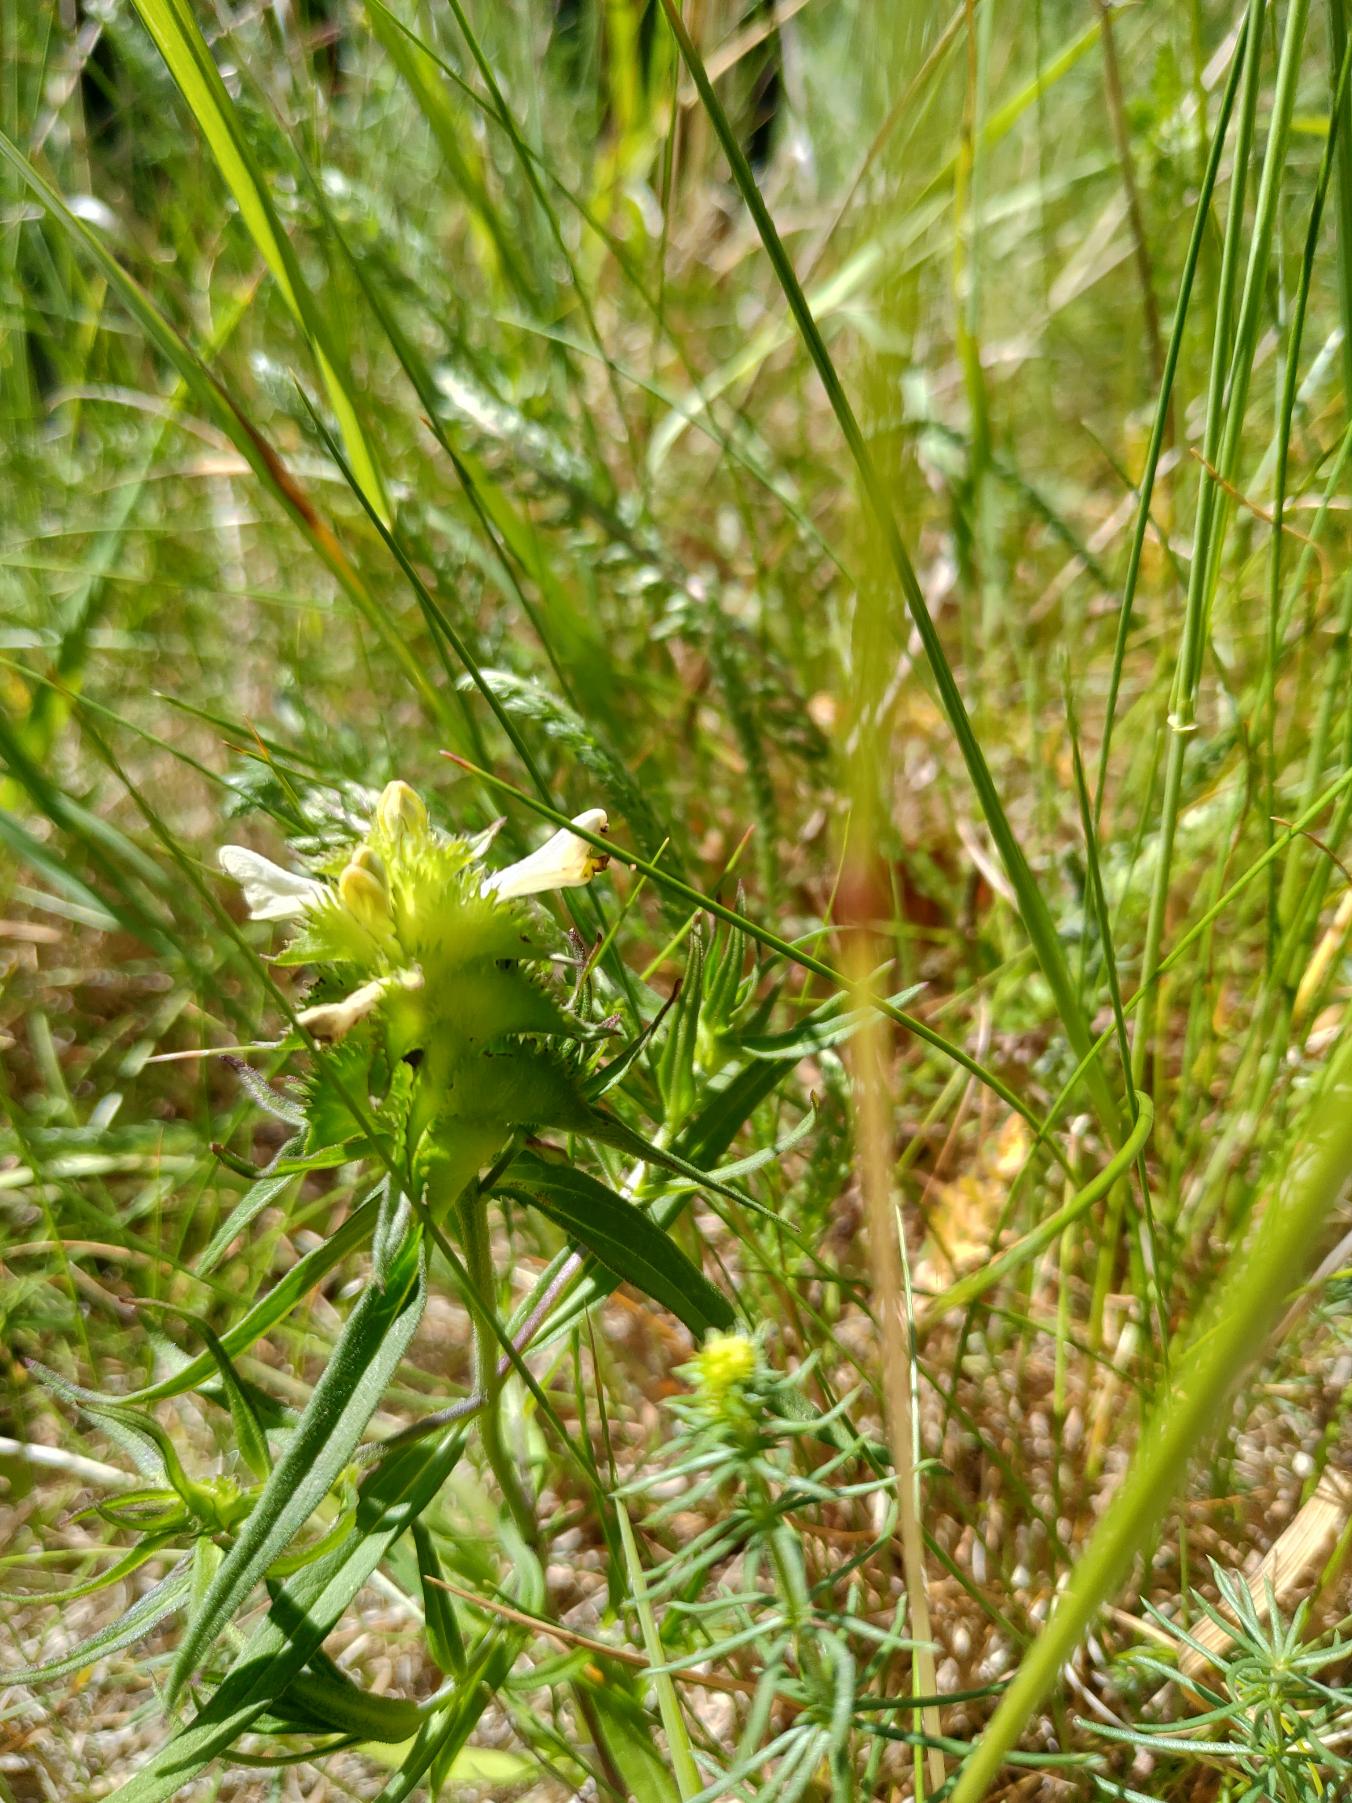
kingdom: Plantae
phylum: Tracheophyta
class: Magnoliopsida
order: Lamiales
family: Orobanchaceae
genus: Melampyrum
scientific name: Melampyrum cristatum
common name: Kantet kohvede
